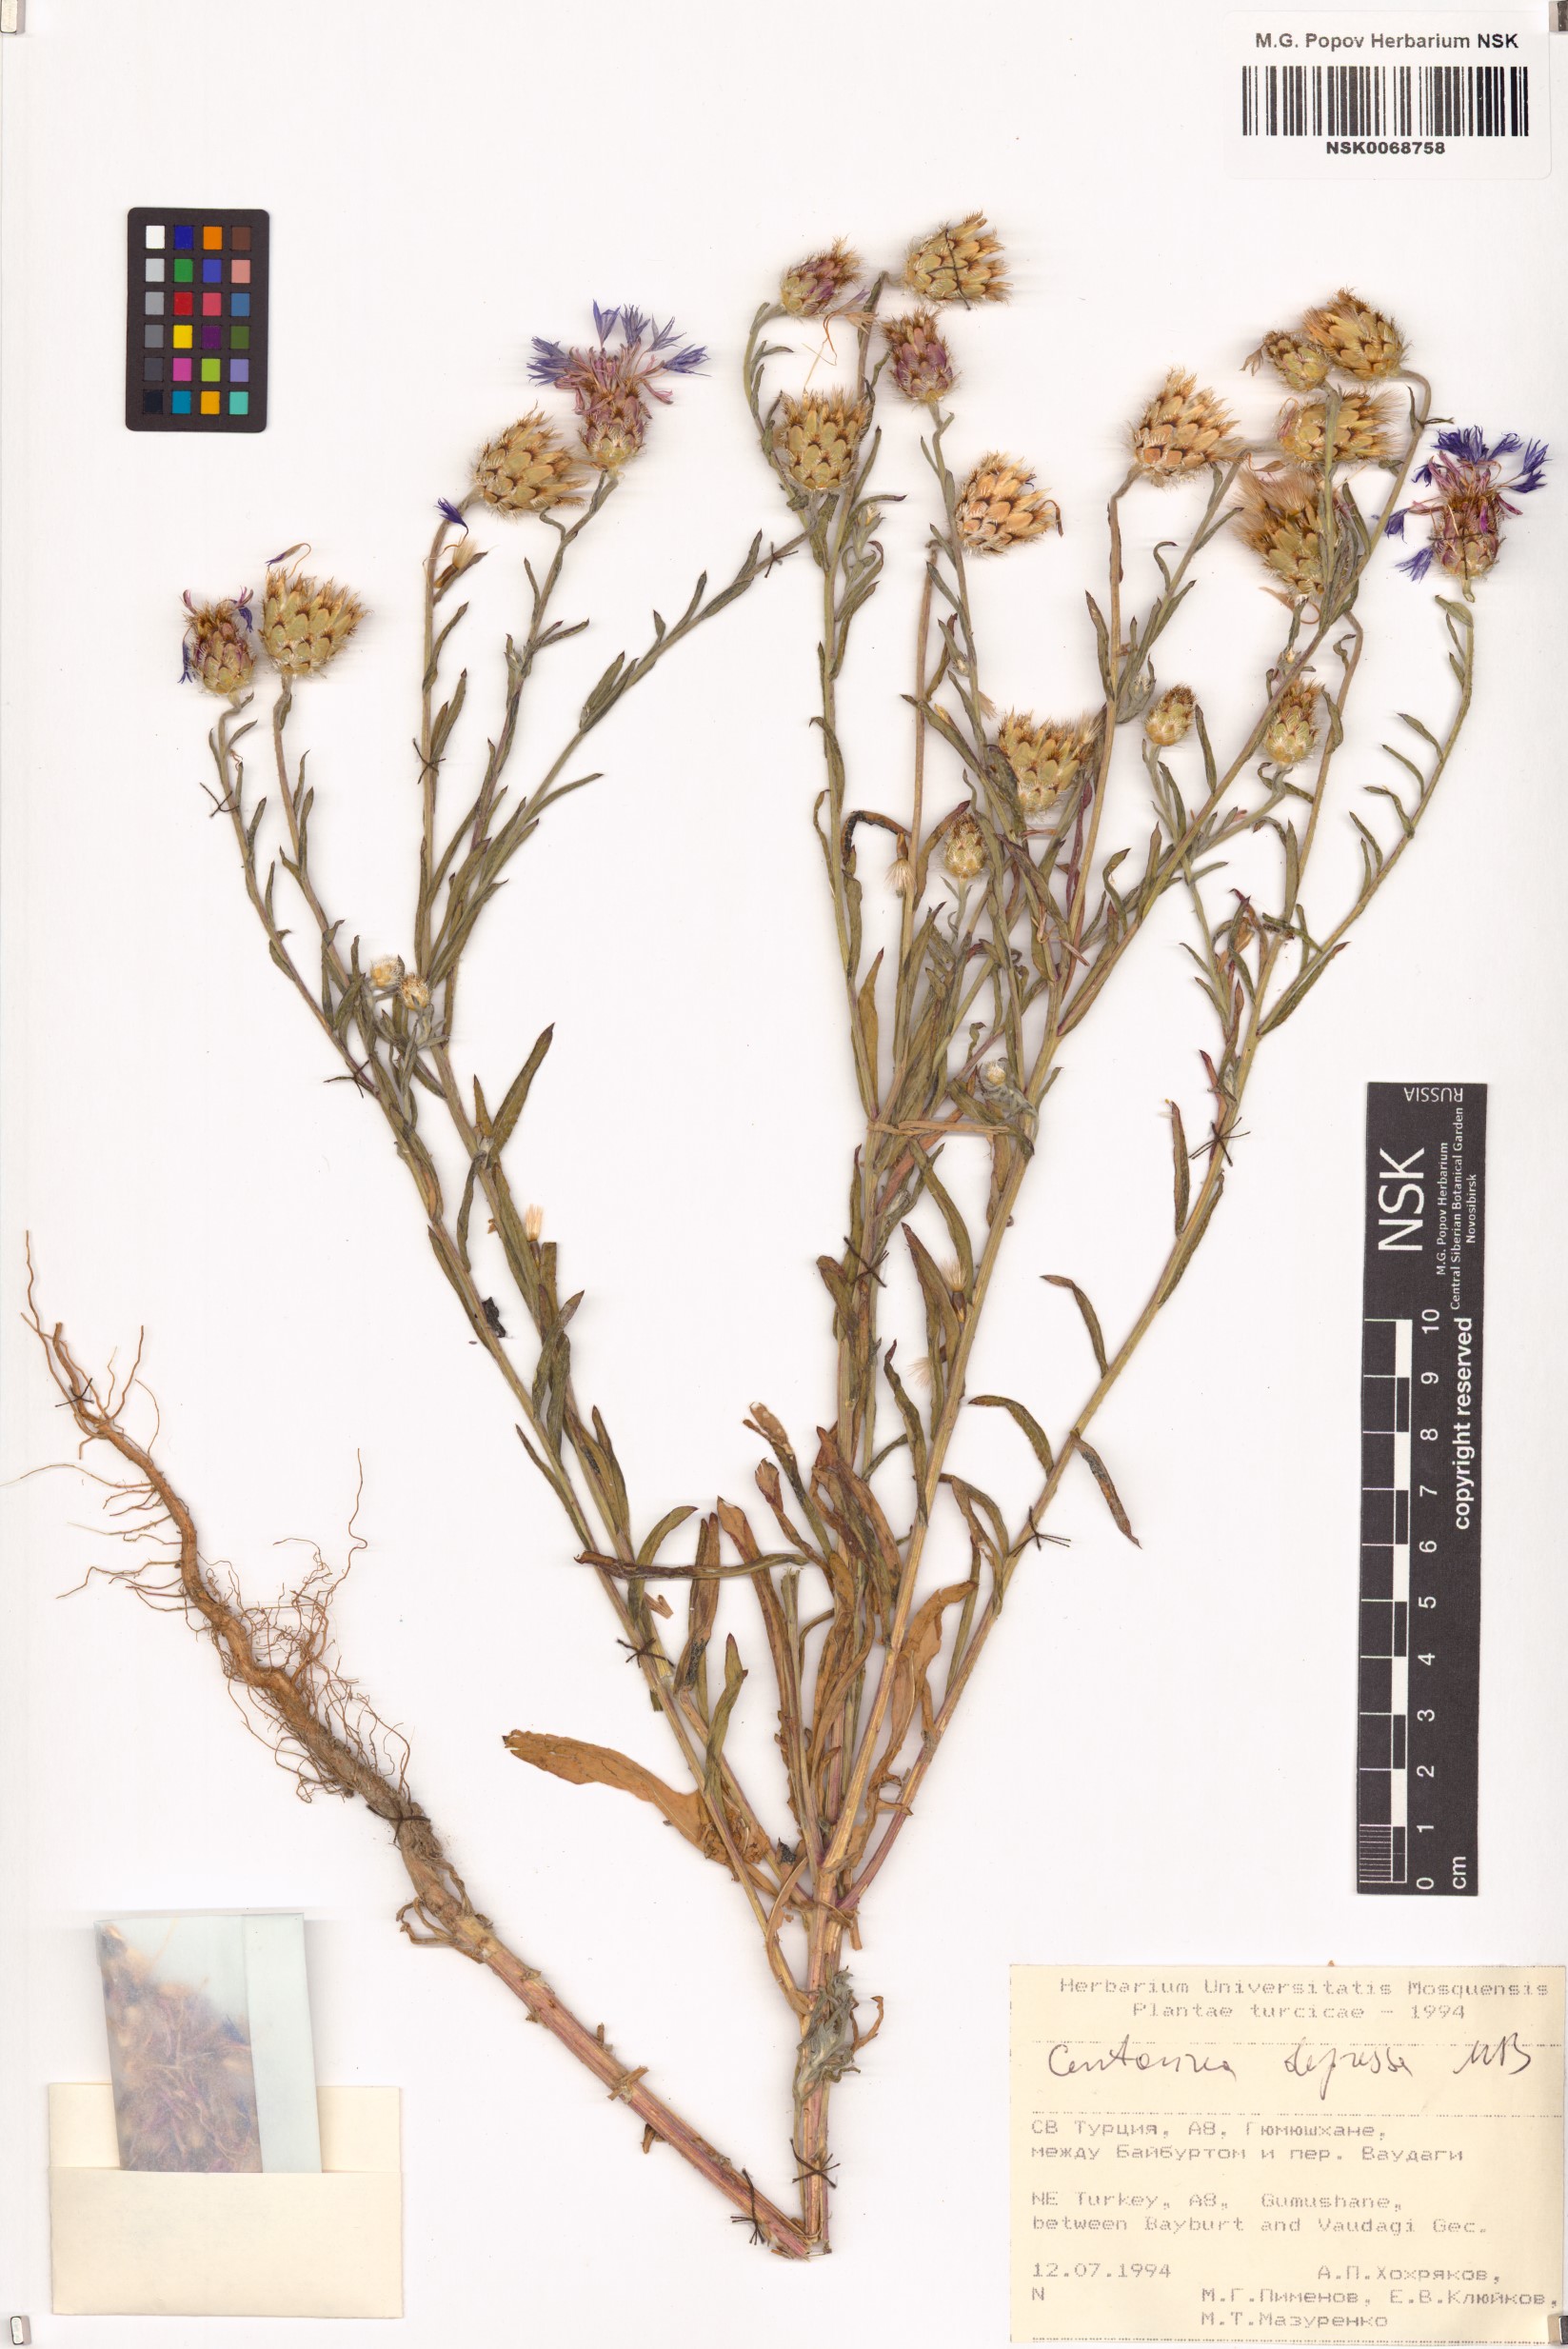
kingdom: Plantae
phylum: Tracheophyta
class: Magnoliopsida
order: Asterales
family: Asteraceae
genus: Centaurea
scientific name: Centaurea depressa
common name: Iranian knapweed
